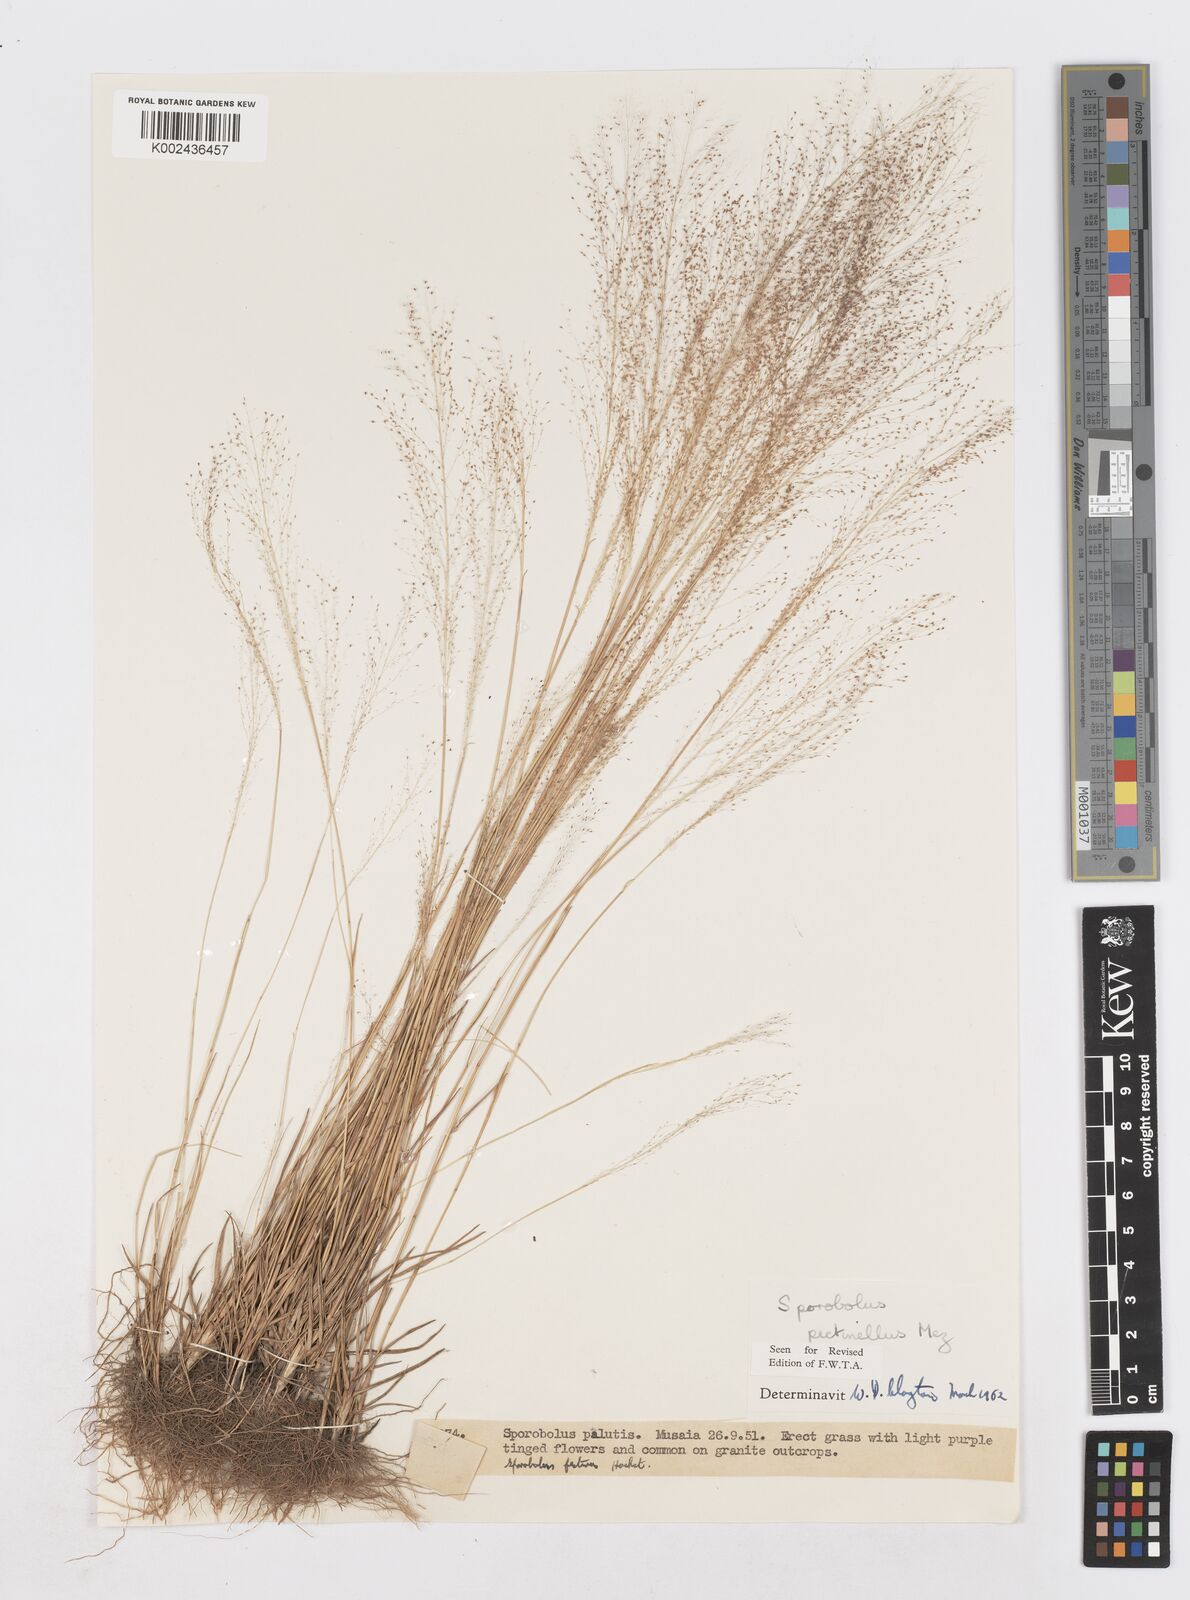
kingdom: Plantae
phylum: Tracheophyta
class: Liliopsida
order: Poales
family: Poaceae
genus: Sporobolus
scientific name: Sporobolus pectinellus
